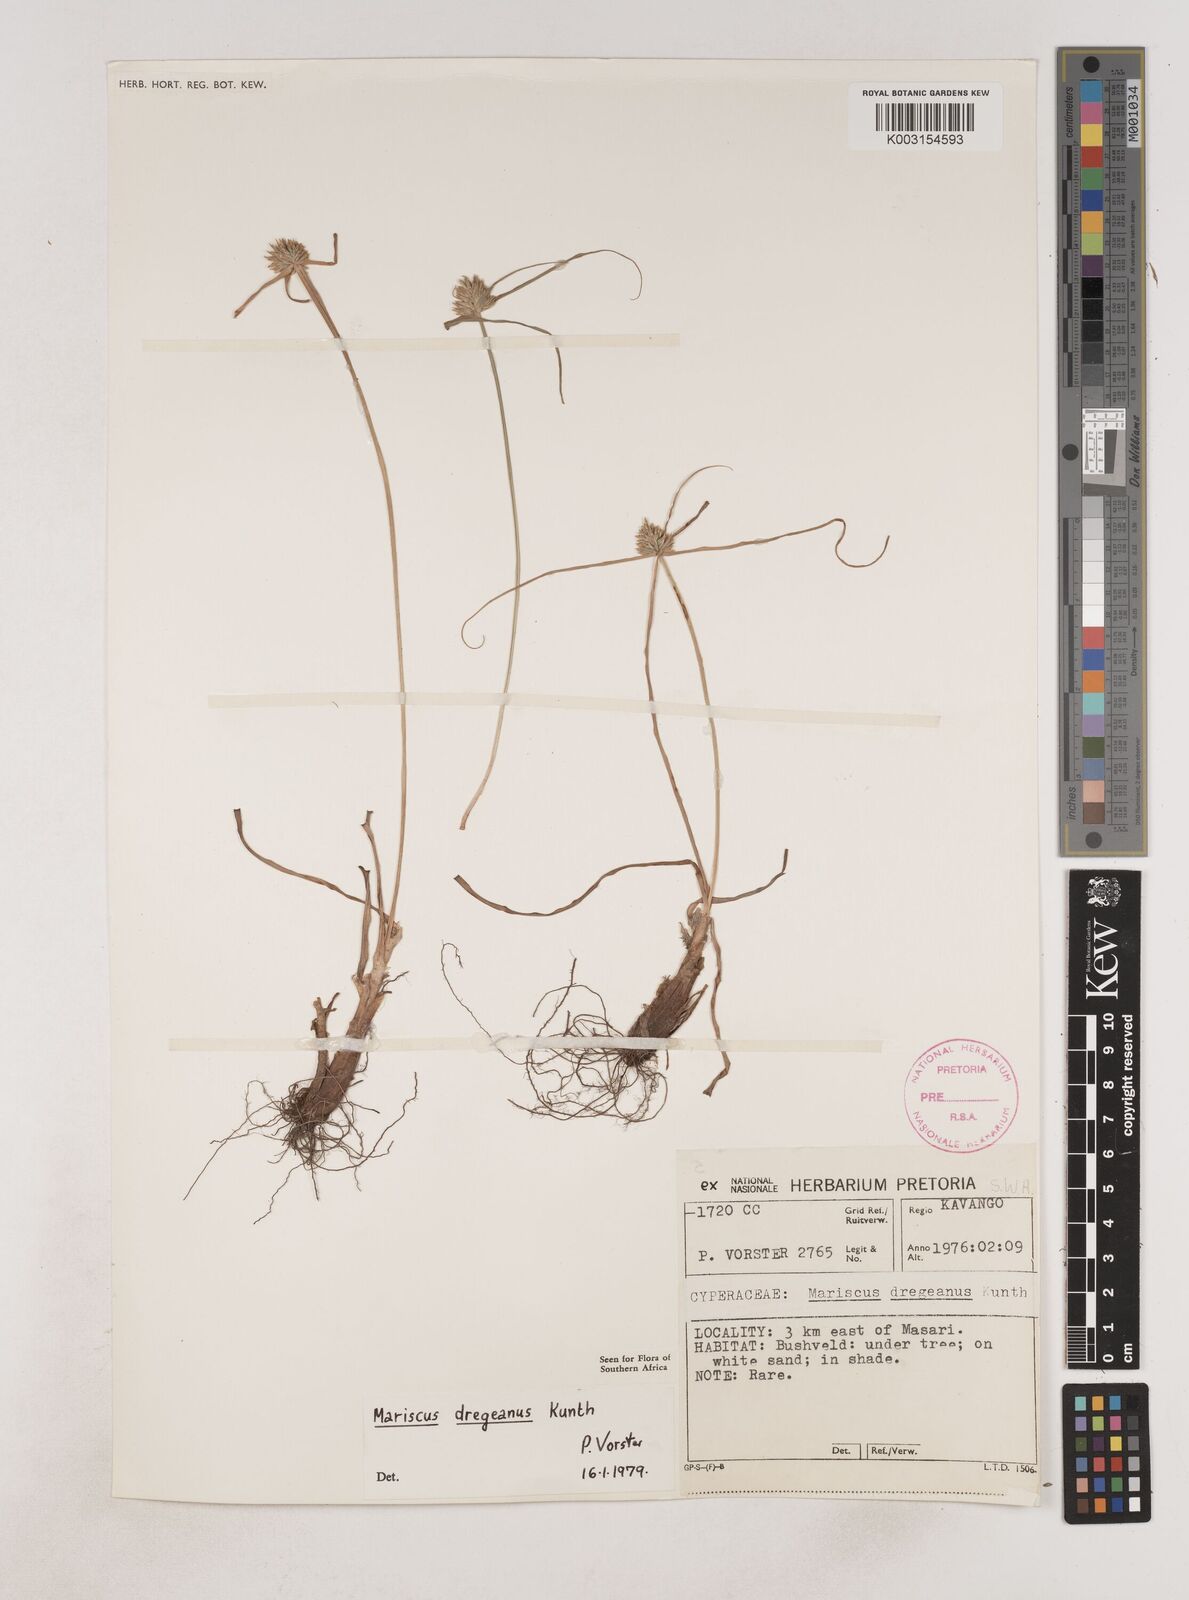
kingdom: Plantae
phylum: Tracheophyta
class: Liliopsida
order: Poales
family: Cyperaceae
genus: Cyperus
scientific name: Cyperus dubius
